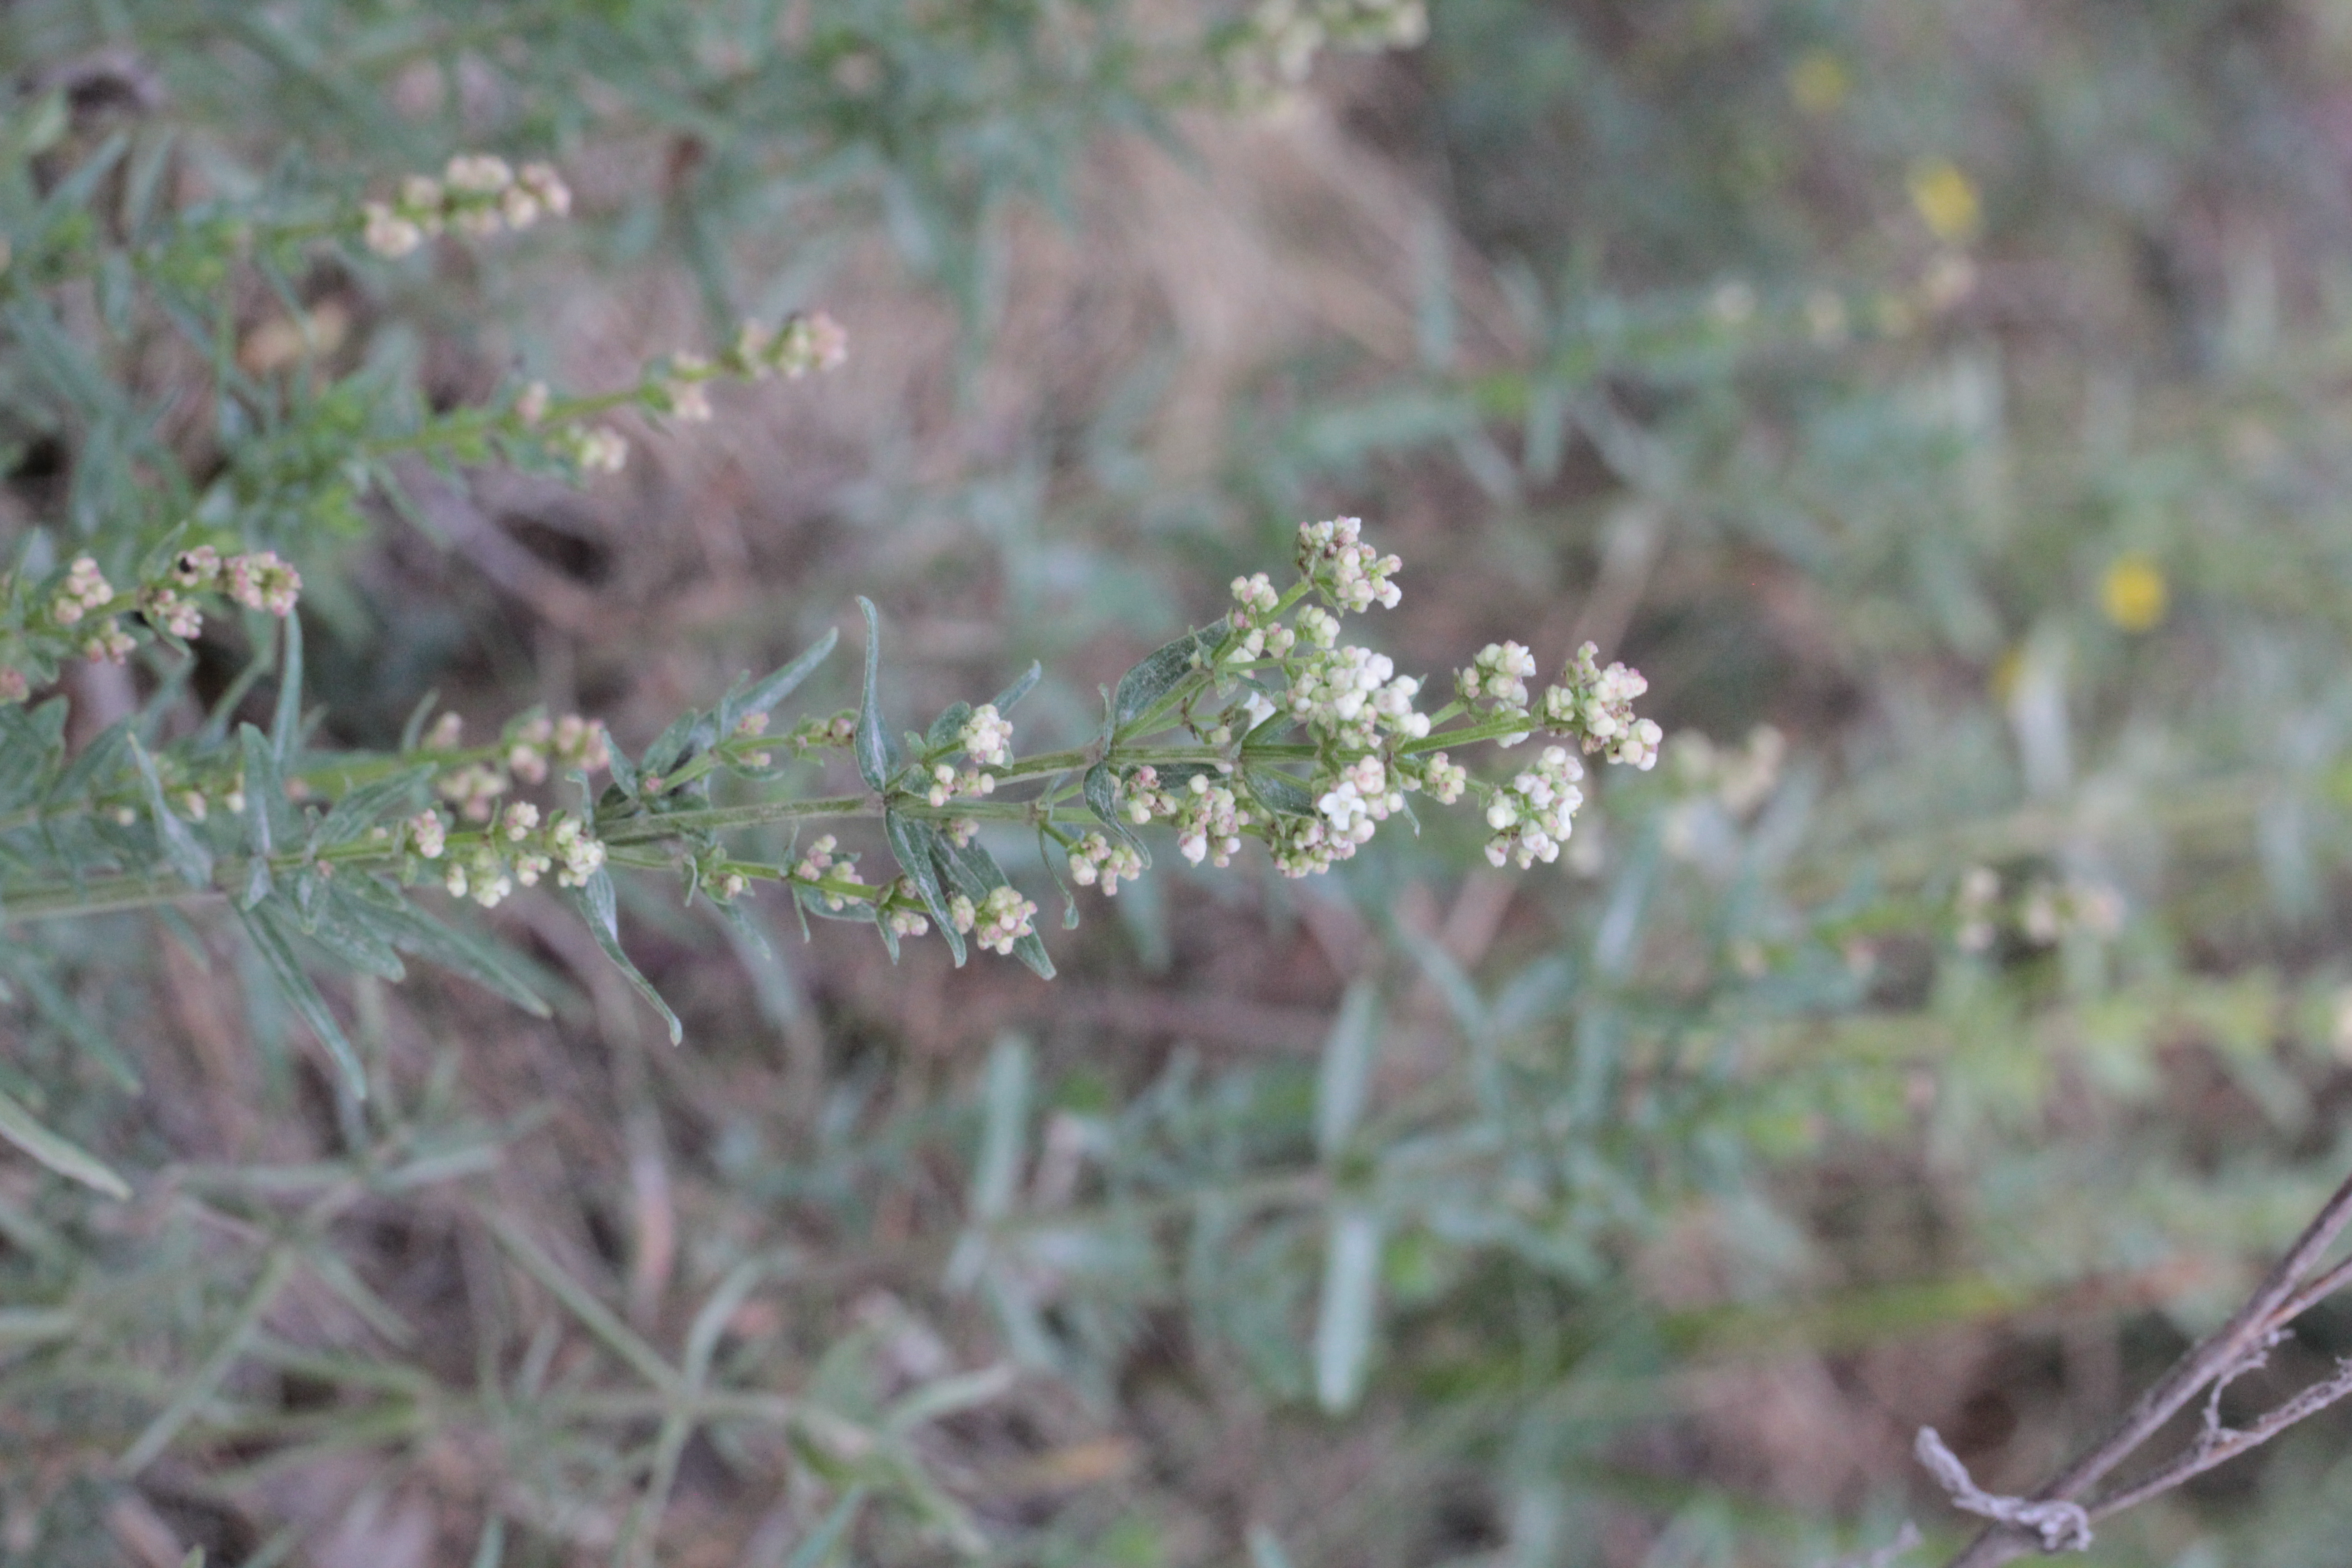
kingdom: Plantae
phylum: Tracheophyta
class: Magnoliopsida
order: Gentianales
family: Rubiaceae
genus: Galium
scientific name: Galium boreale
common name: Northern bedstraw
